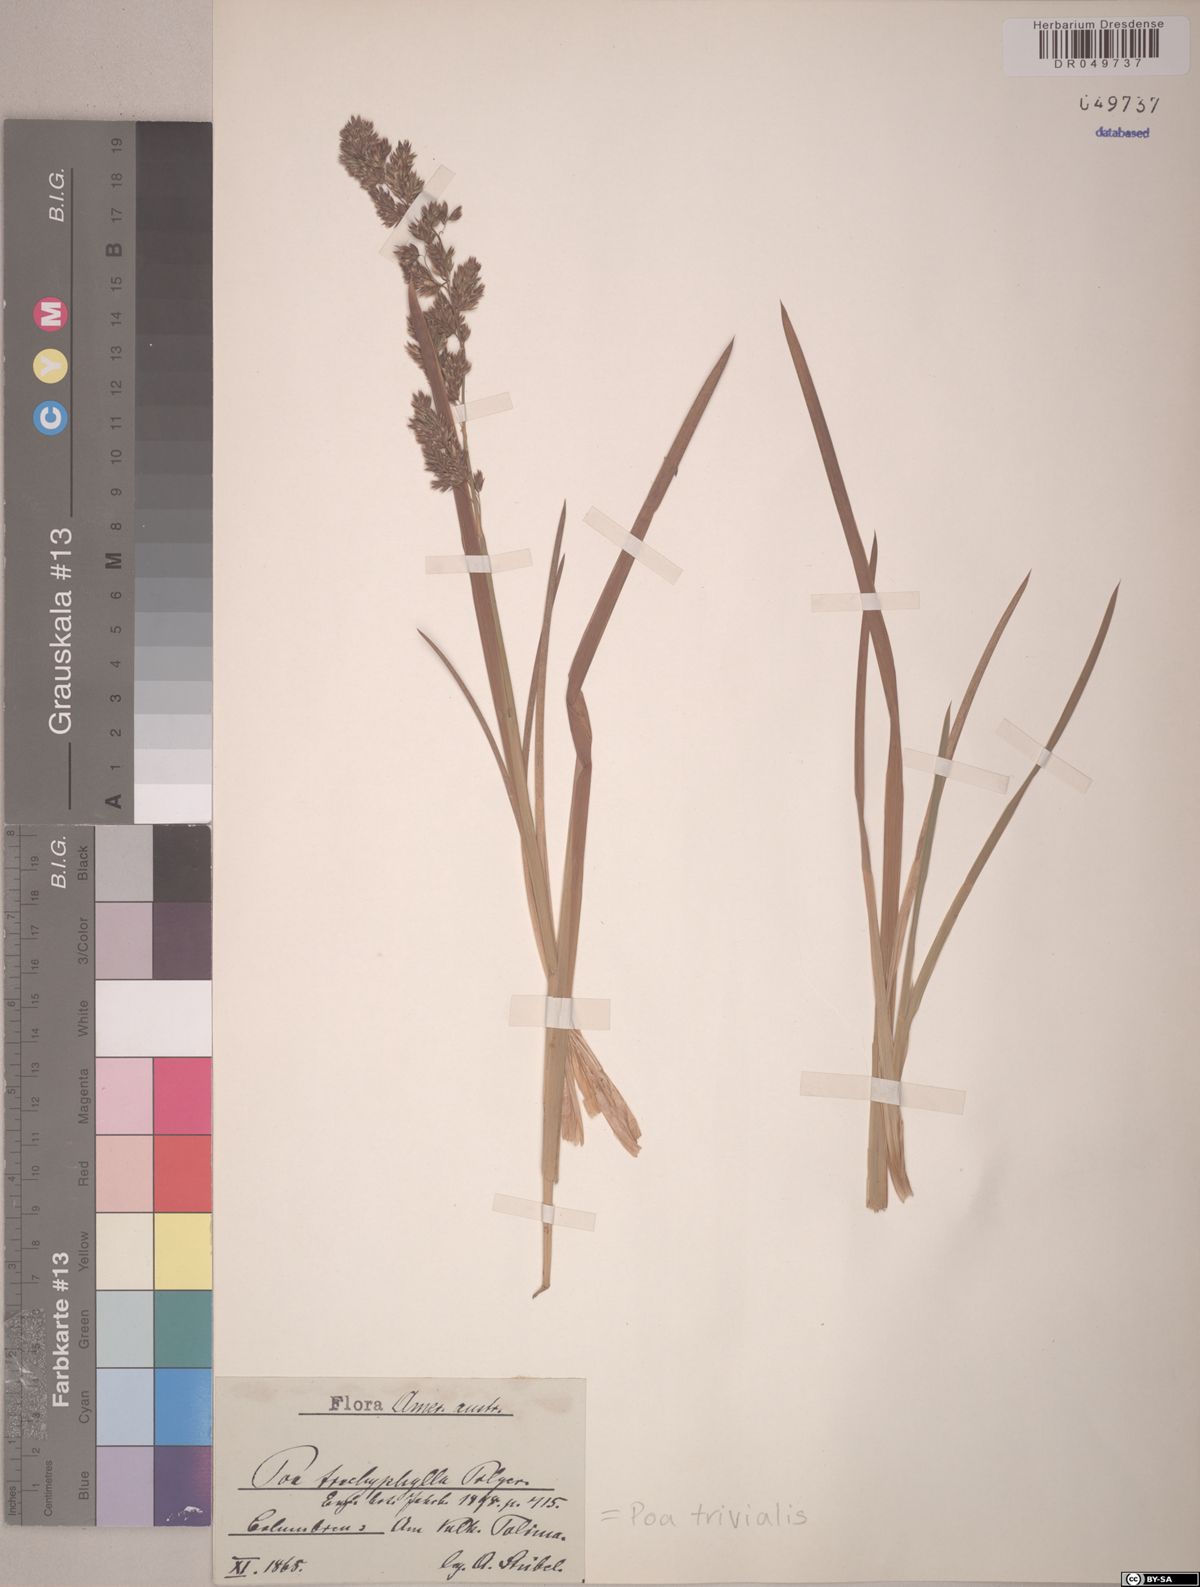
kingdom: Plantae
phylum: Tracheophyta
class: Liliopsida
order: Poales
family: Poaceae
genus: Poa
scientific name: Poa trachyphylla
